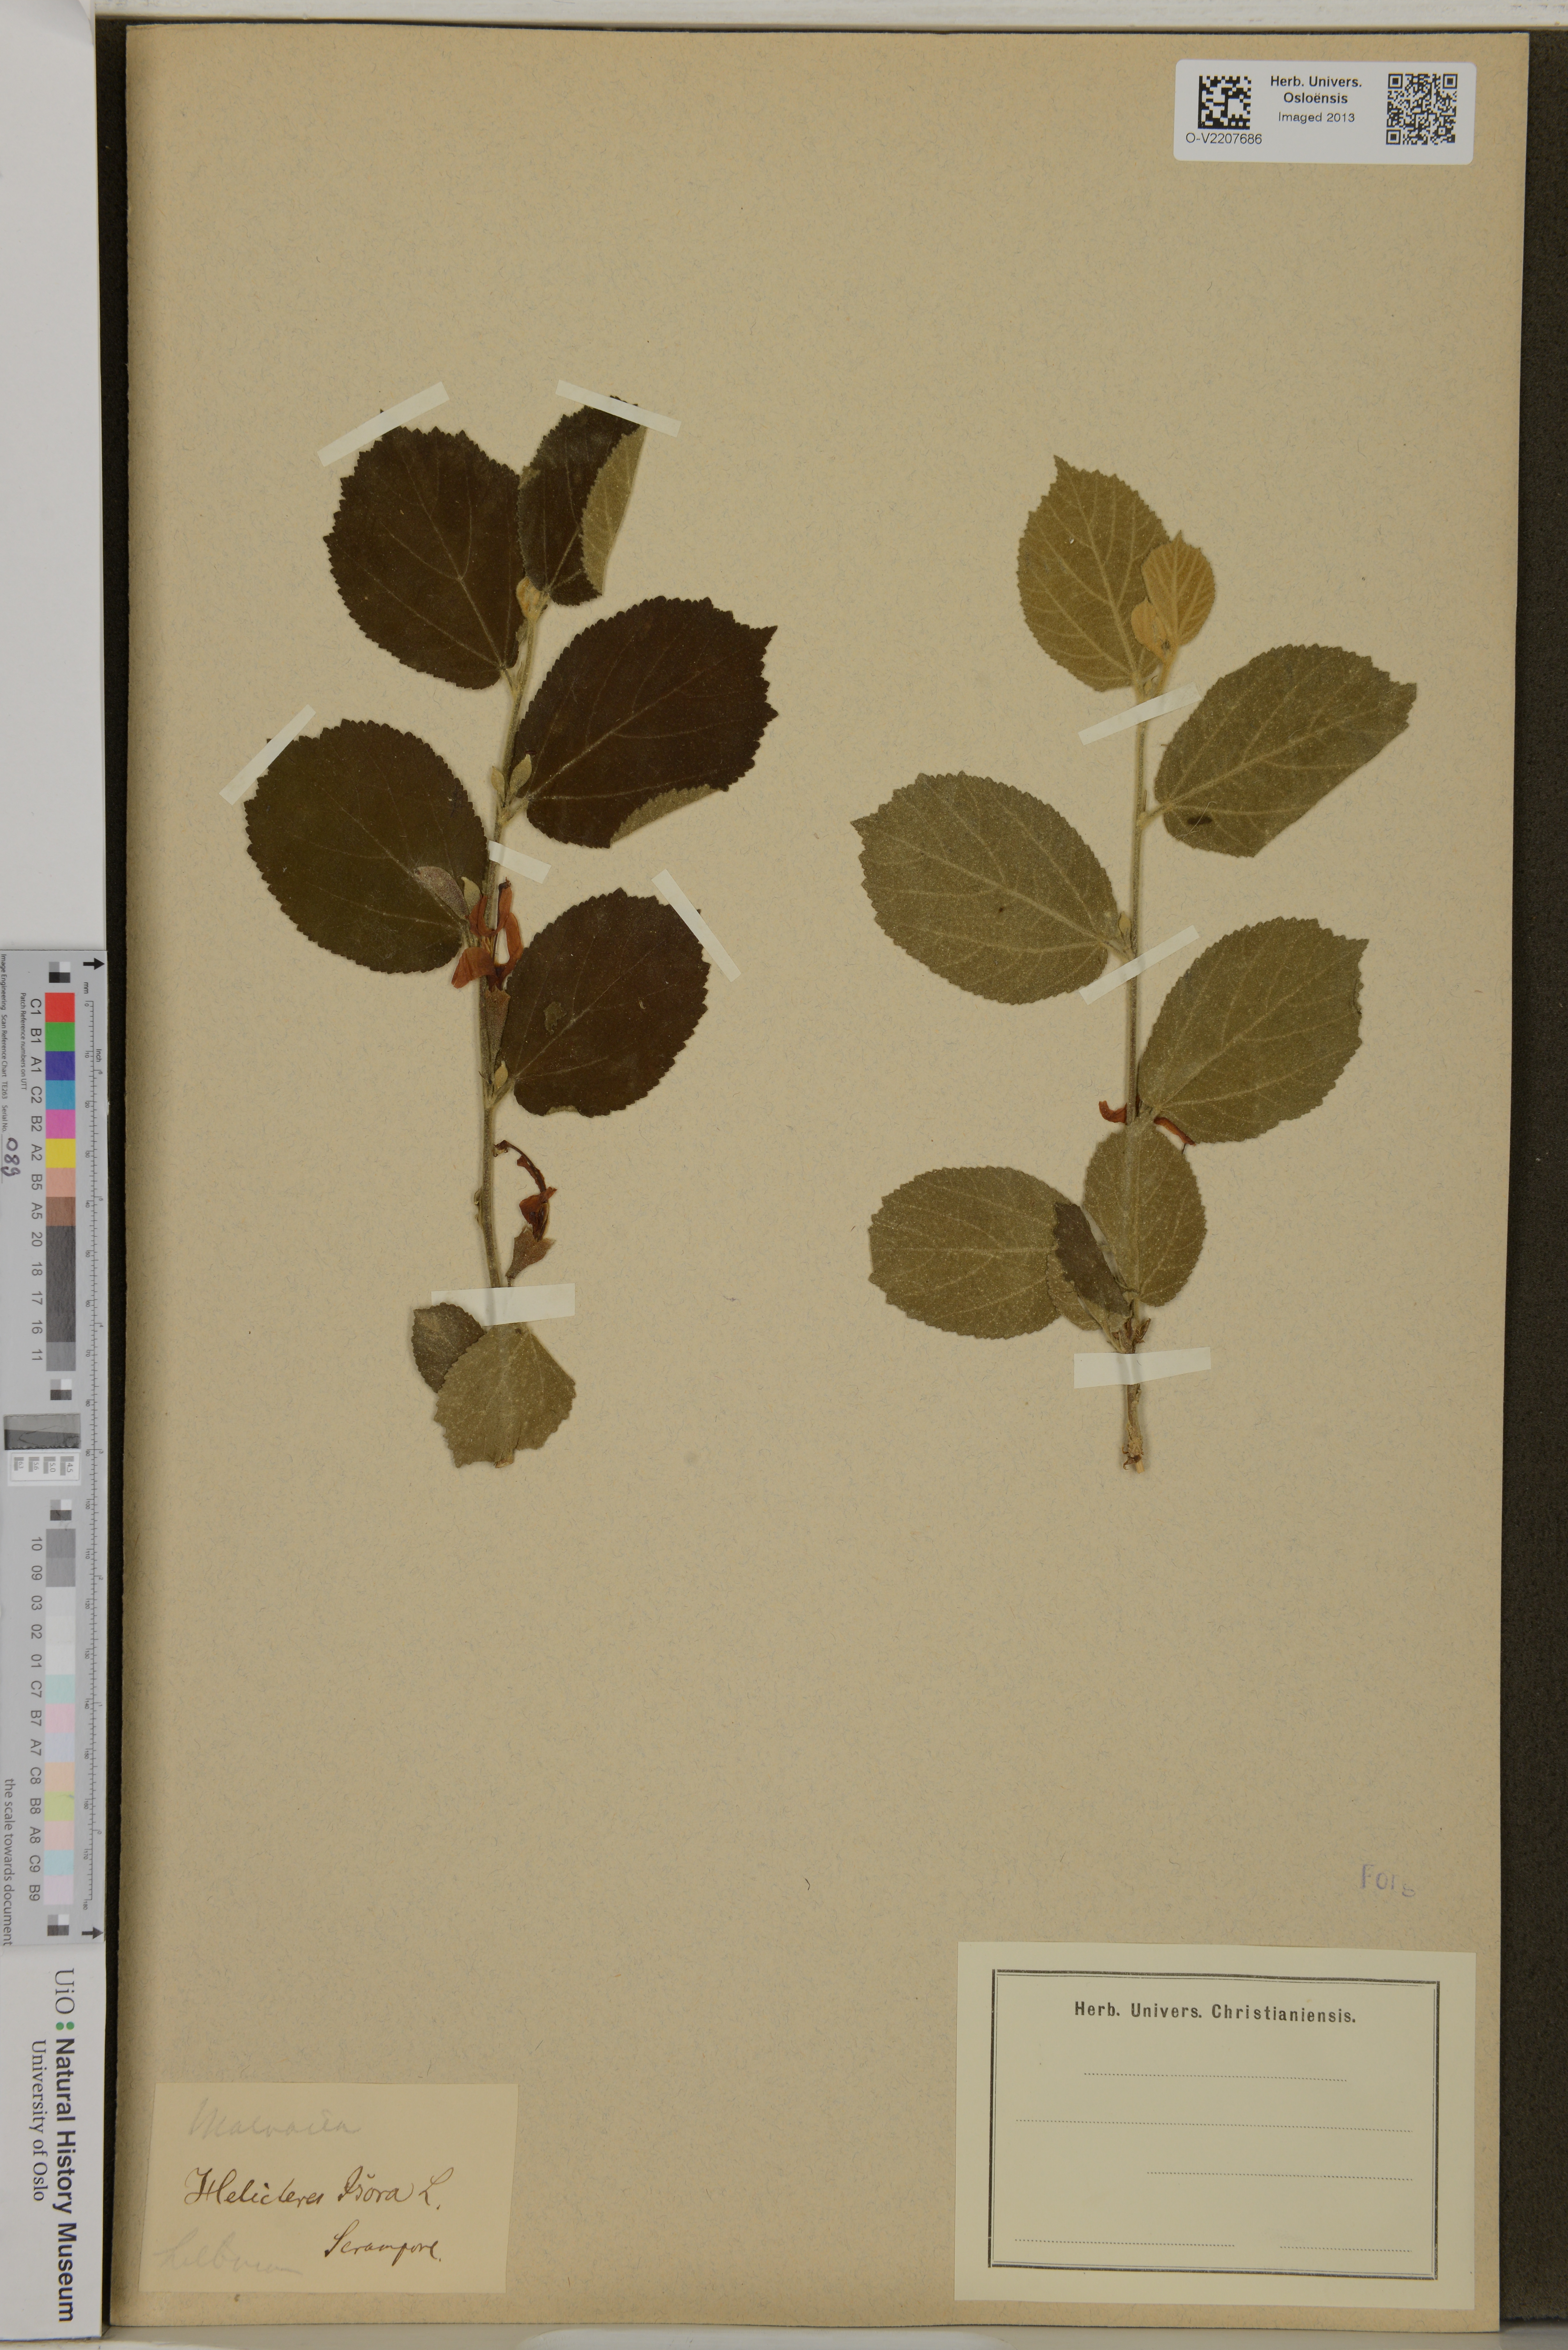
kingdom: Plantae
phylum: Tracheophyta
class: Magnoliopsida
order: Malvales
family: Malvaceae
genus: Helicteres
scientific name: Helicteres isora
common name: East indian screwtree
